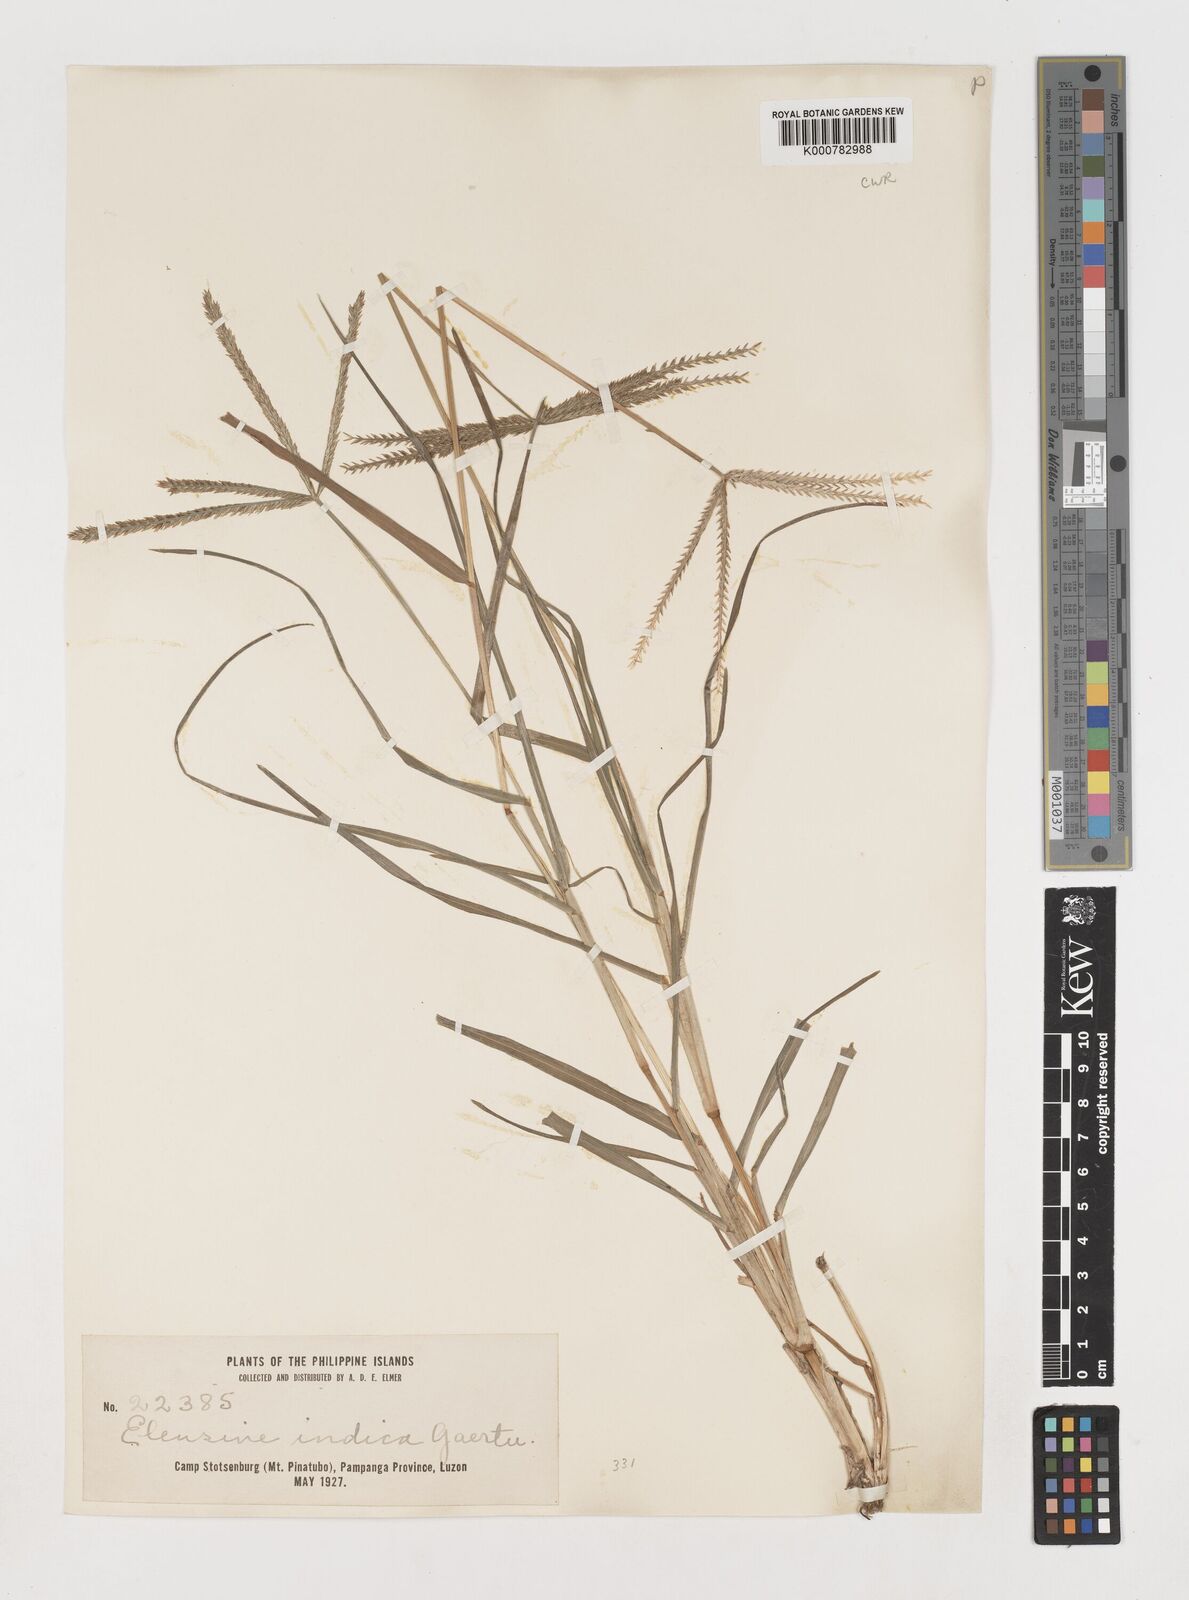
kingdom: Plantae
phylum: Tracheophyta
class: Liliopsida
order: Poales
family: Poaceae
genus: Eleusine
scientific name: Eleusine indica
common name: Yard-grass
